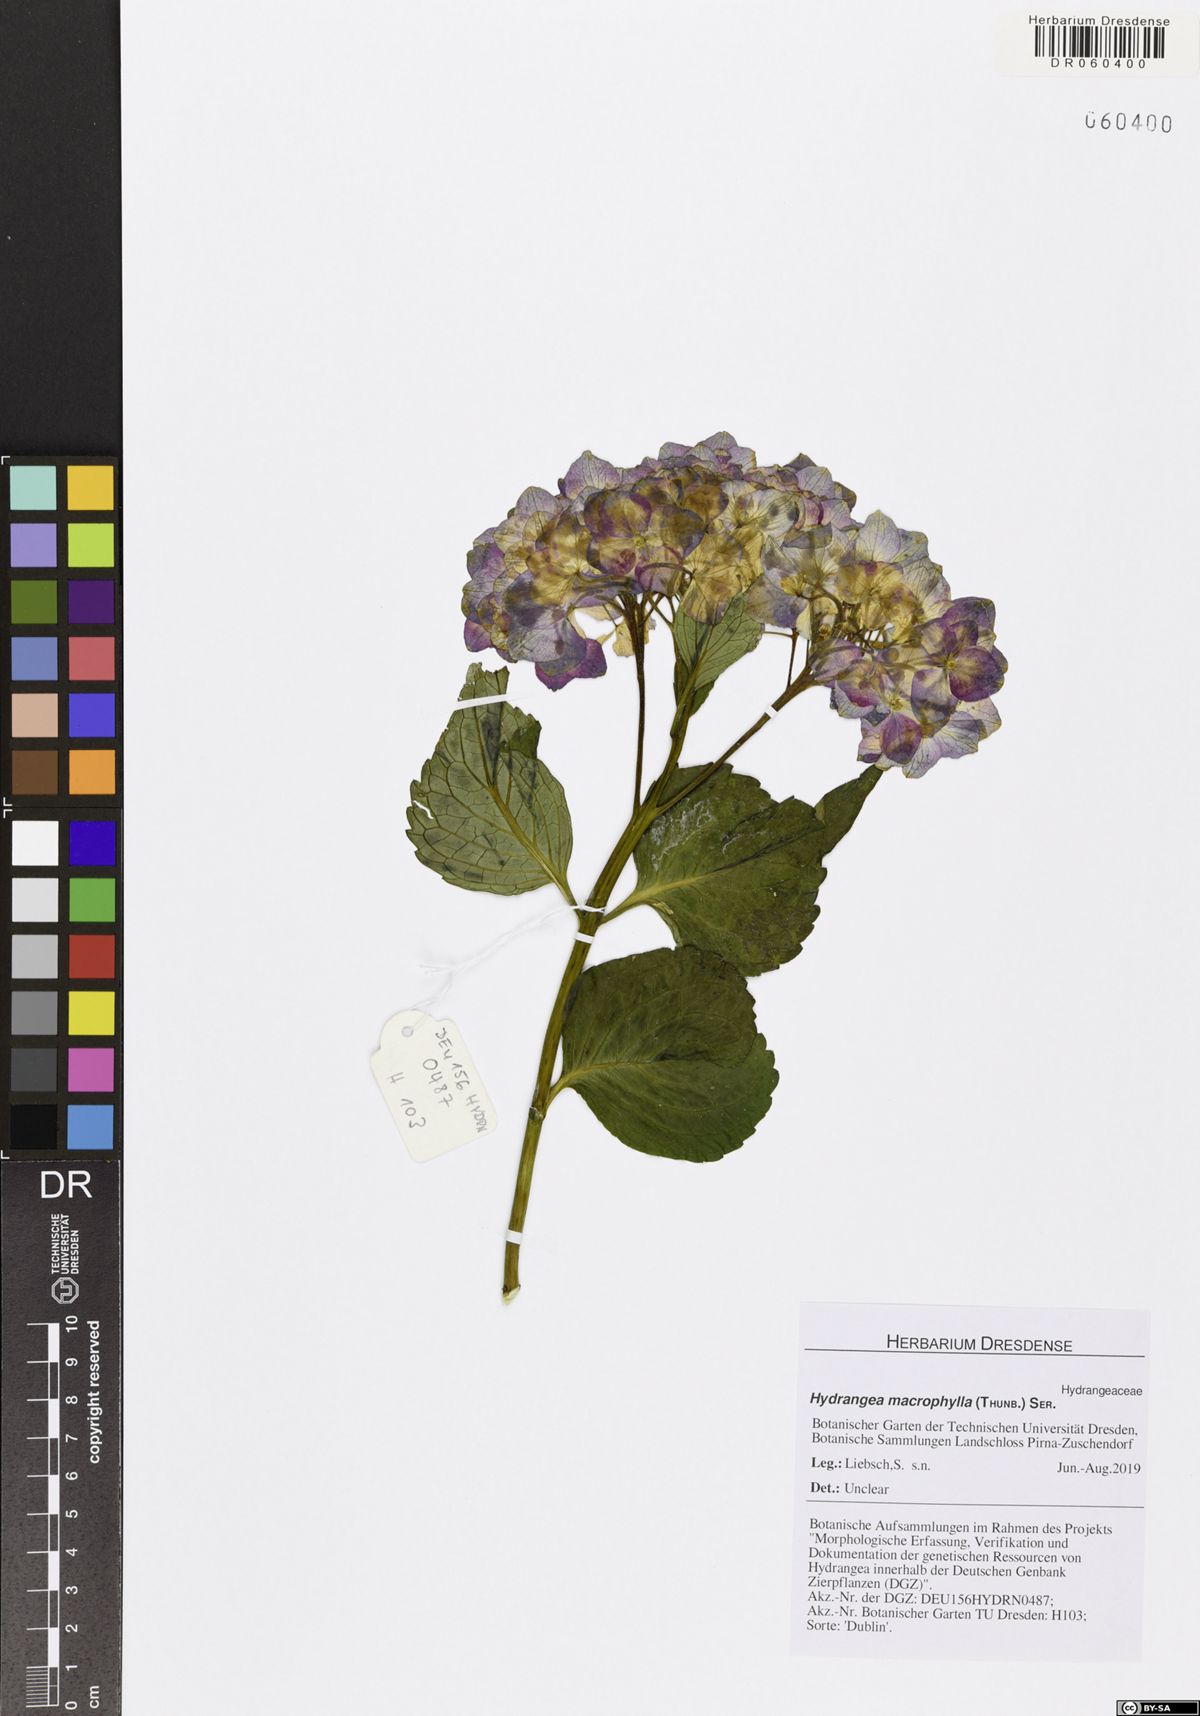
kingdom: Plantae
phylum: Tracheophyta
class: Magnoliopsida
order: Cornales
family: Hydrangeaceae
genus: Hydrangea
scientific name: Hydrangea macrophylla
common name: Hydrangea
